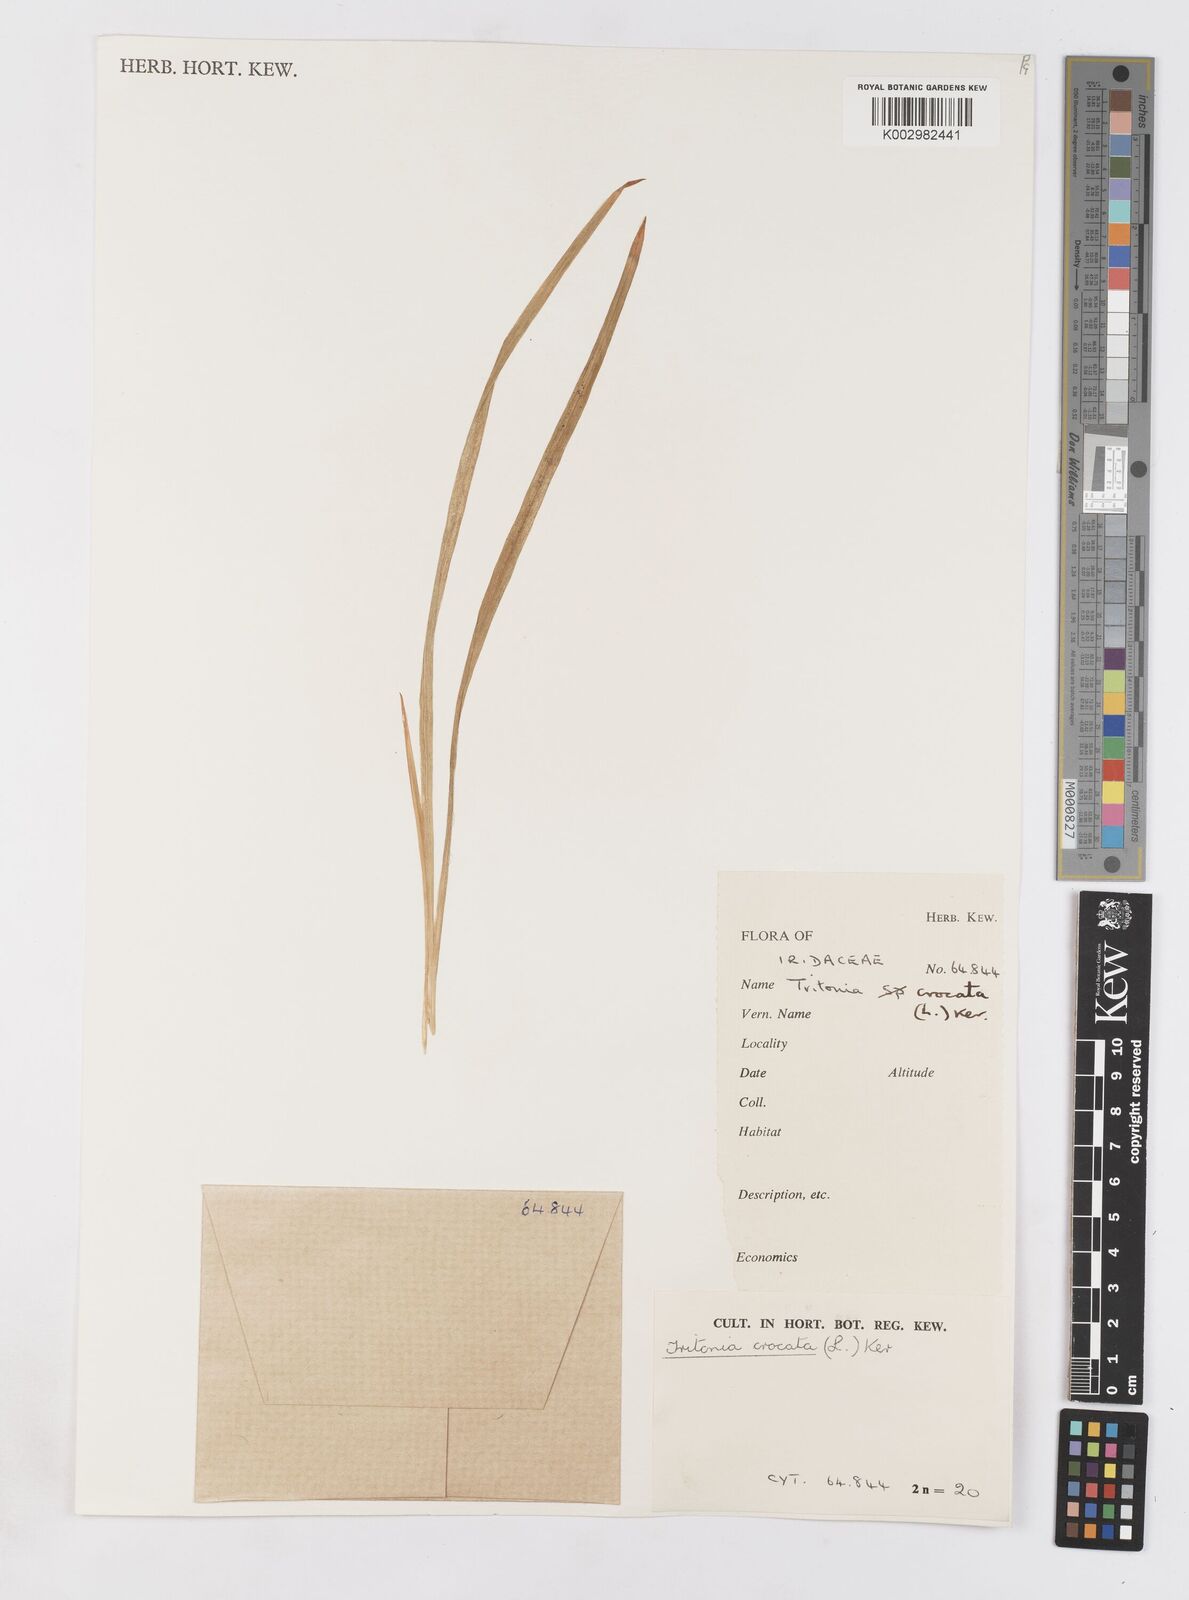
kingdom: Plantae
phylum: Tracheophyta
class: Liliopsida
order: Asparagales
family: Iridaceae
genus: Tritonia
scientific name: Tritonia crocata
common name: Flame-freesia
